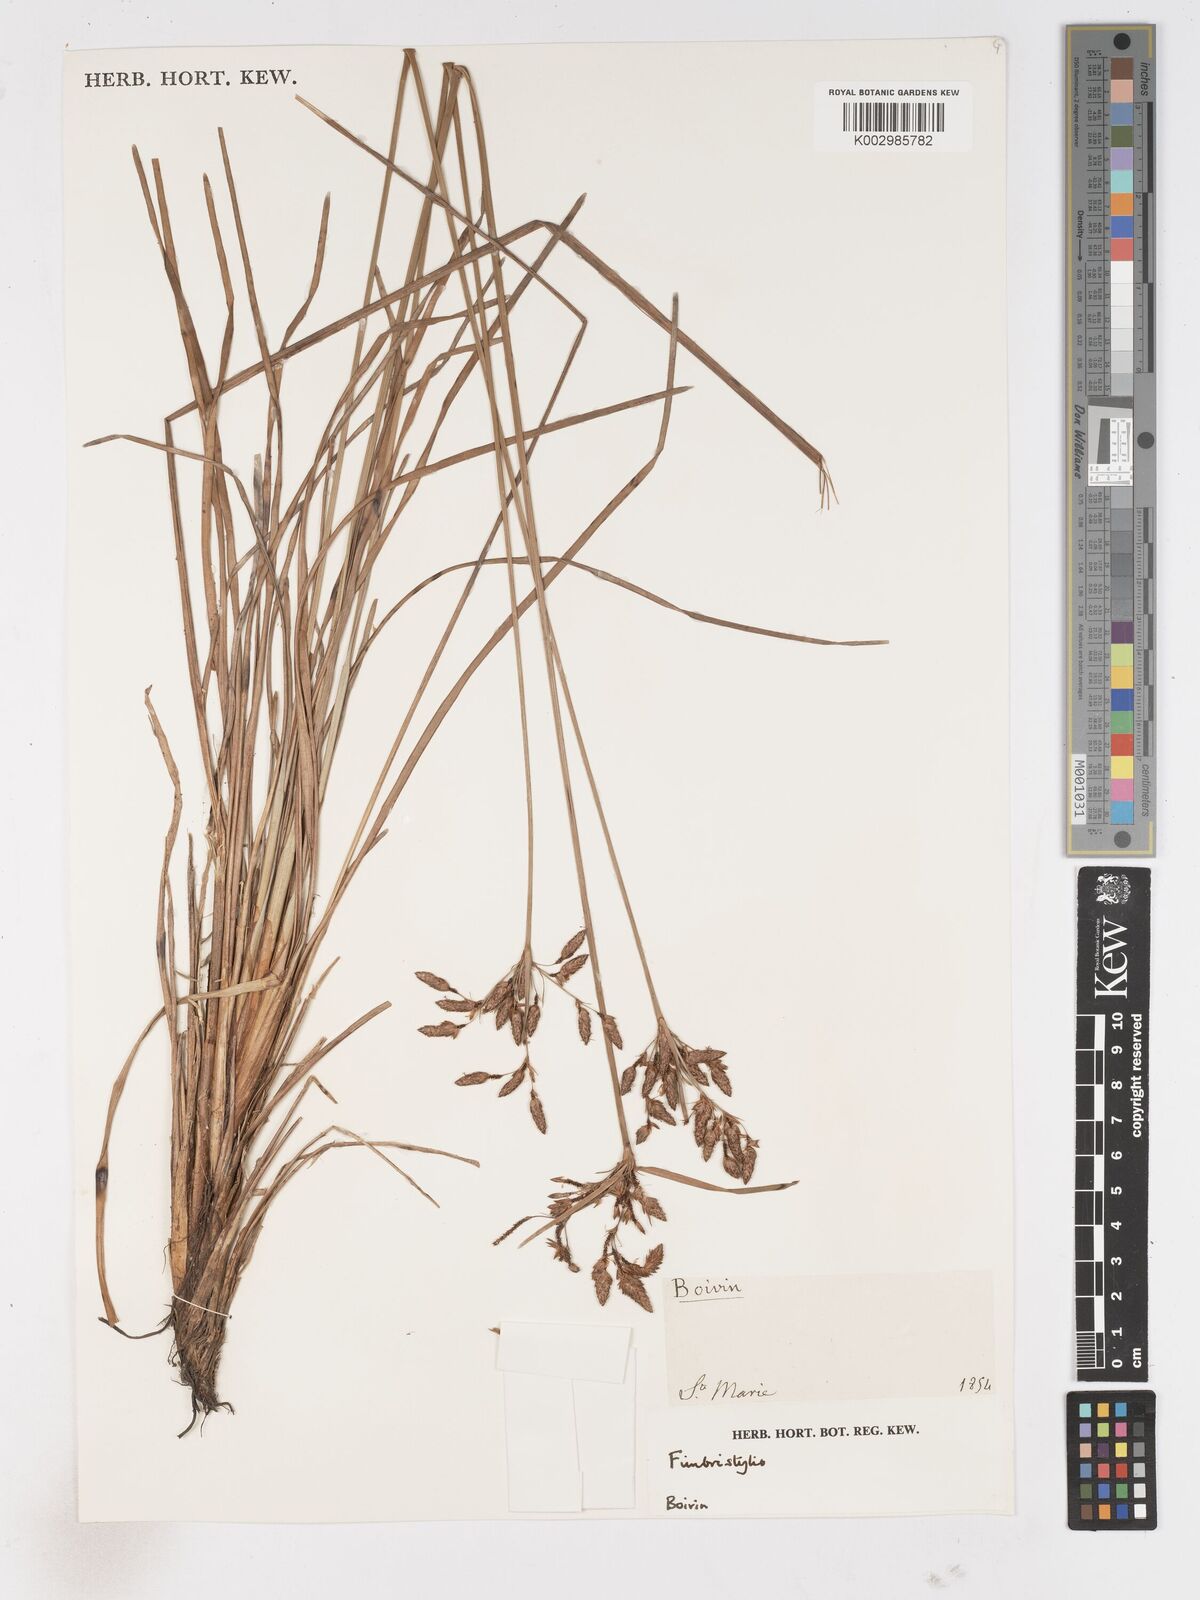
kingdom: Plantae
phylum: Tracheophyta
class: Liliopsida
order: Poales
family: Cyperaceae
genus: Fimbristylis
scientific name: Fimbristylis
